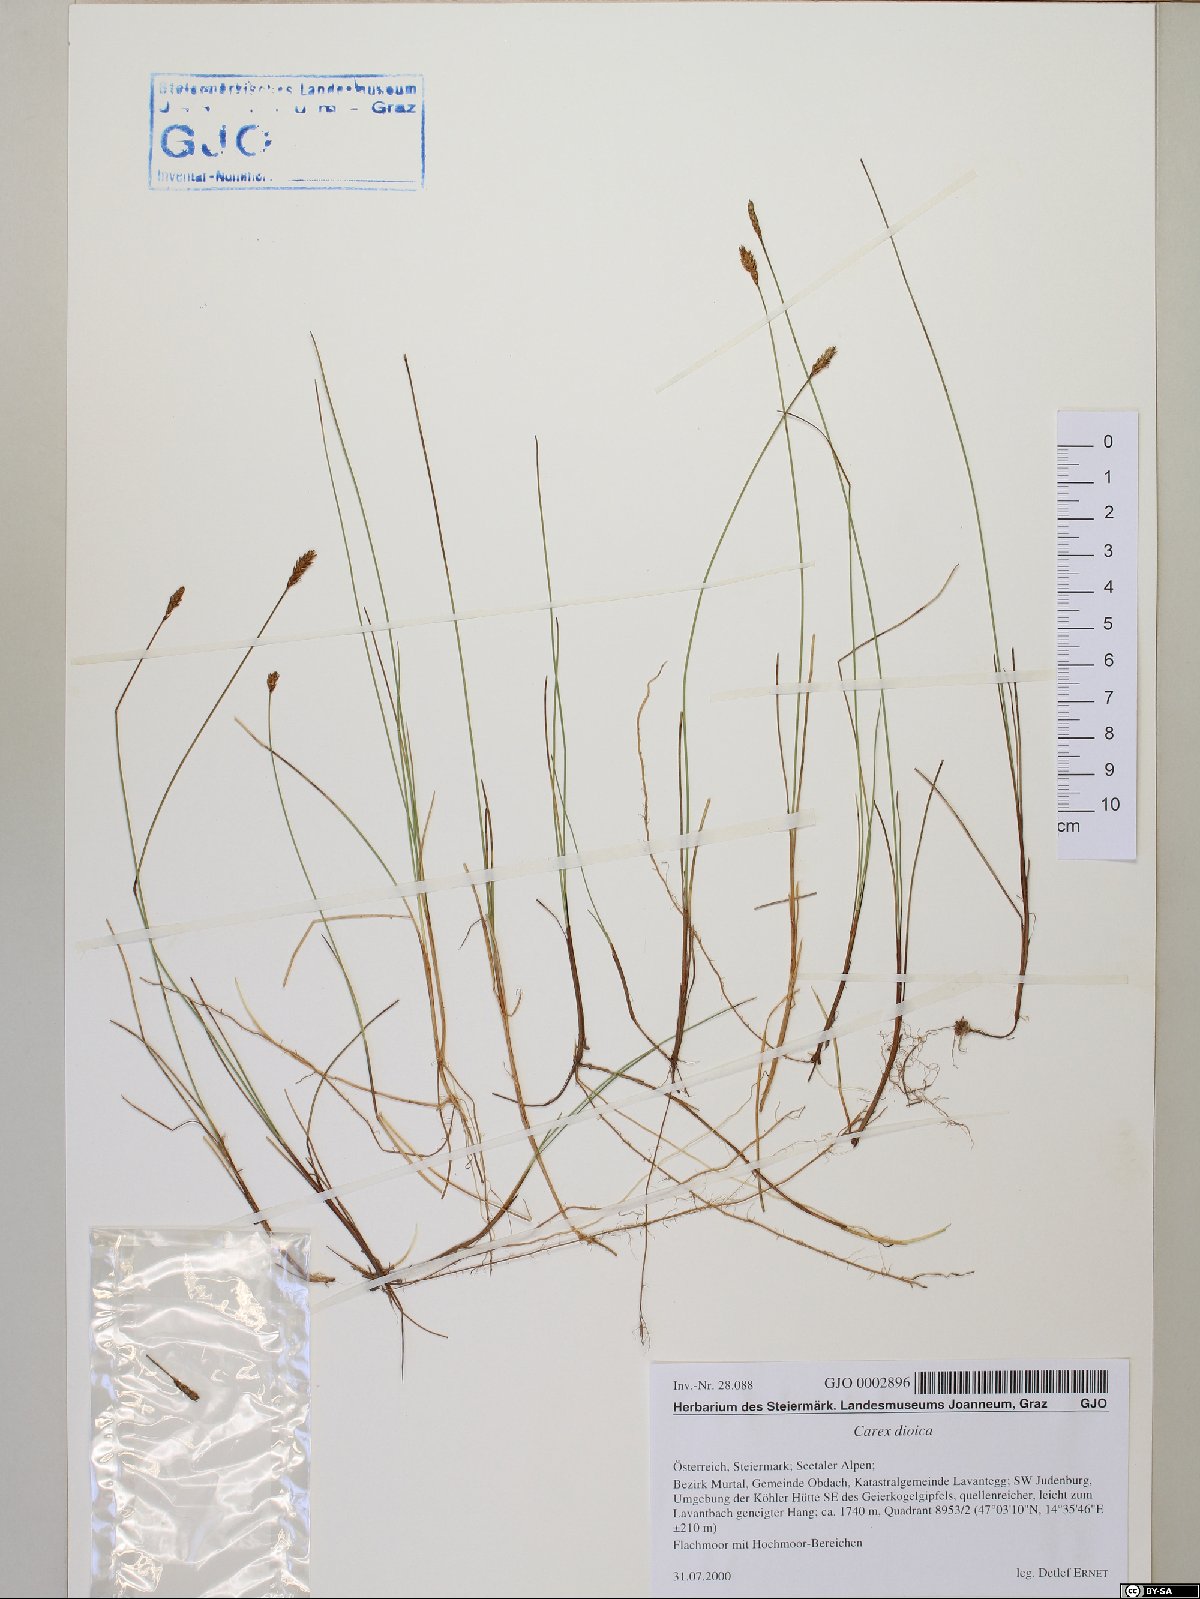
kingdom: Plantae
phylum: Tracheophyta
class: Liliopsida
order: Poales
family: Cyperaceae
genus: Carex
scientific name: Carex dioica
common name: Dioecious sedge
